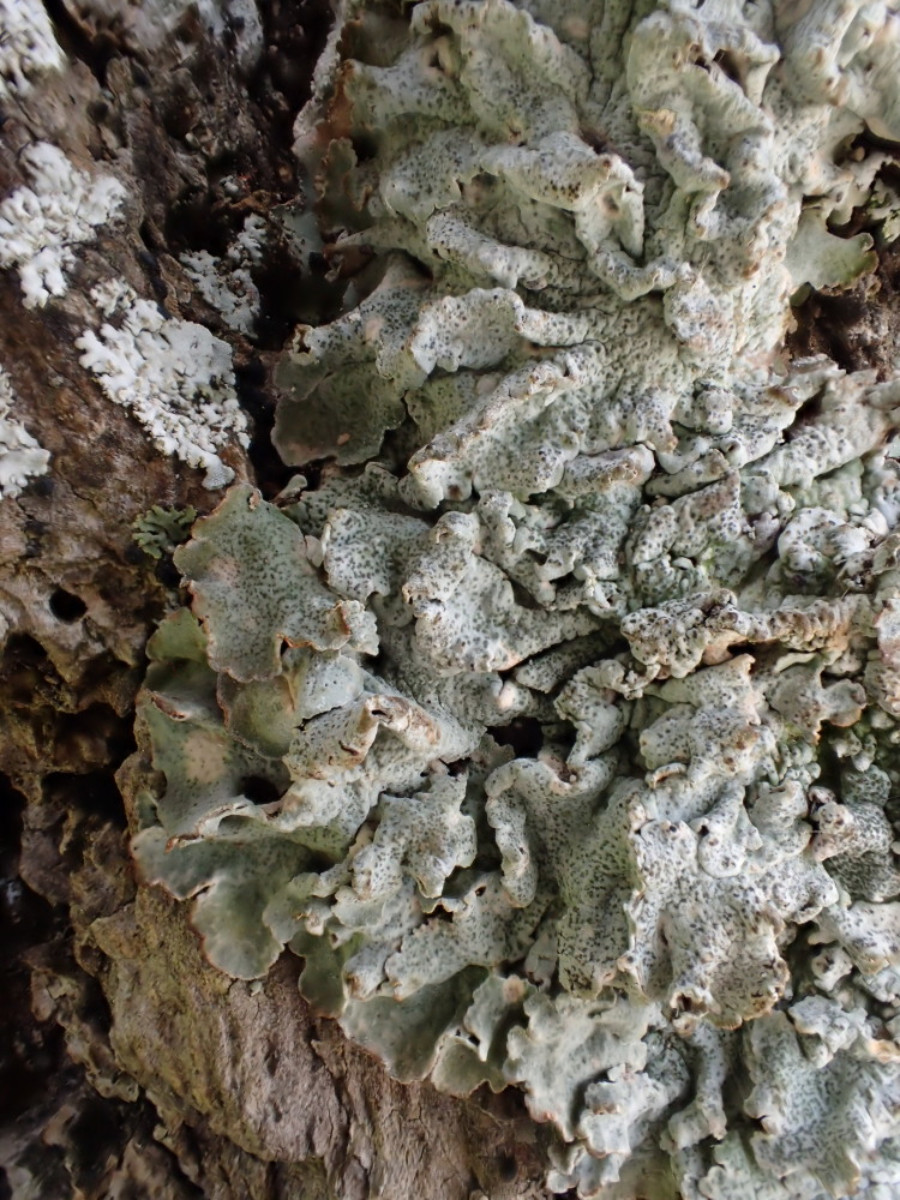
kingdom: Fungi
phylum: Ascomycota
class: Lecanoromycetes
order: Lecanorales
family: Parmeliaceae
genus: Pleurosticta
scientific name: Pleurosticta acetabulum
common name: stor skållav
